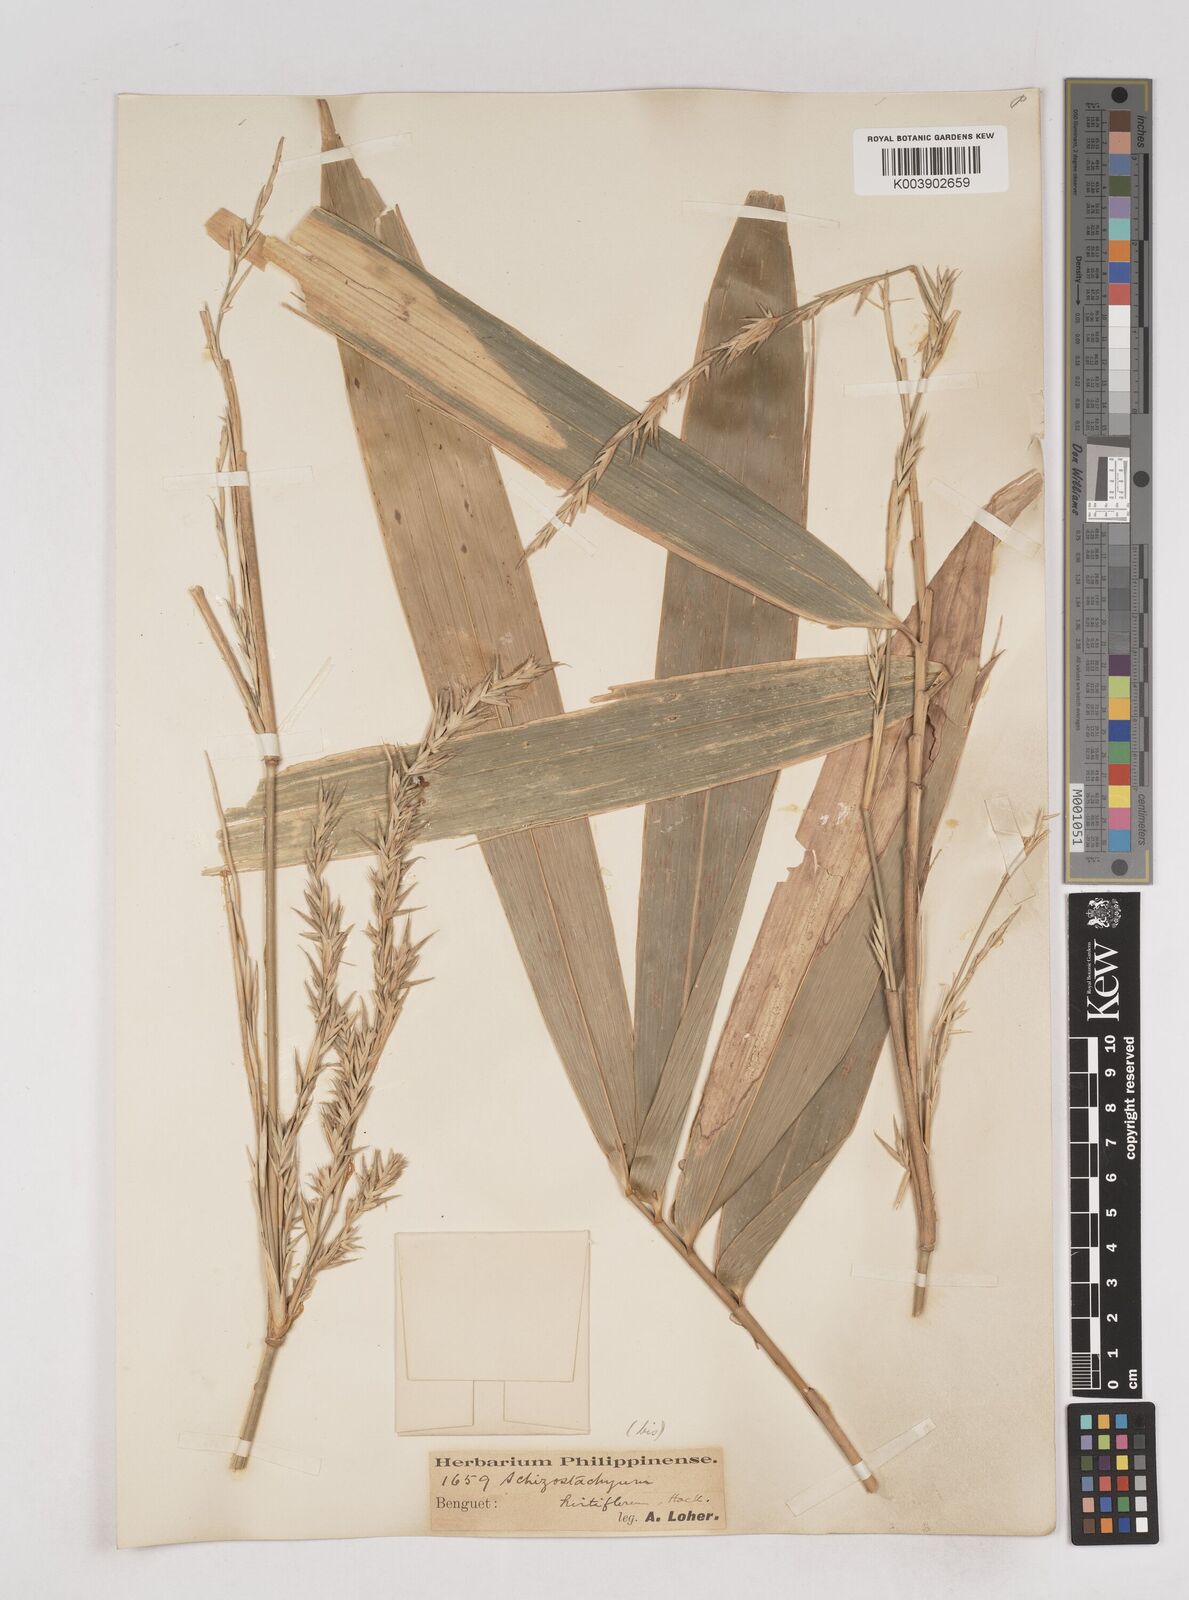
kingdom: Plantae
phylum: Tracheophyta
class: Liliopsida
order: Poales
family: Poaceae
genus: Schizostachyum
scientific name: Schizostachyum lumampao
